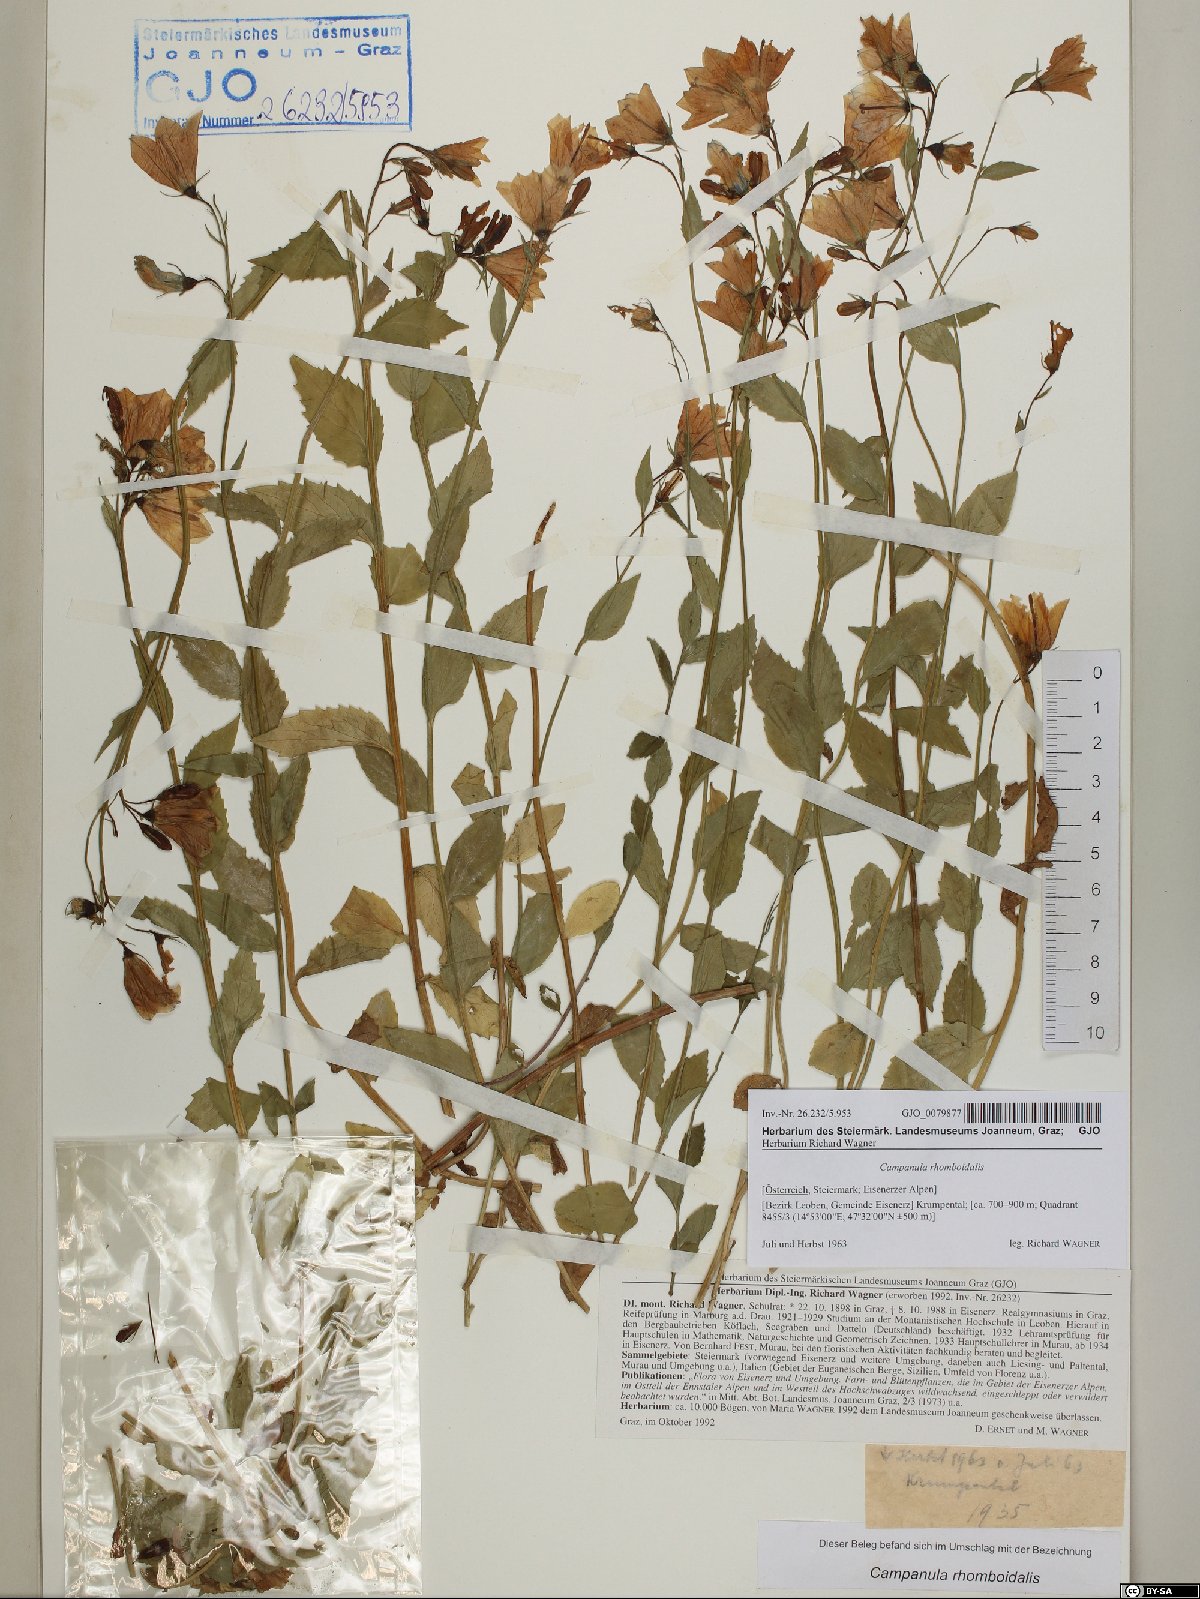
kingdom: Plantae
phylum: Tracheophyta
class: Magnoliopsida
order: Asterales
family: Campanulaceae
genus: Campanula
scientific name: Campanula rhomboidalis
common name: Broad-leaved harebell
